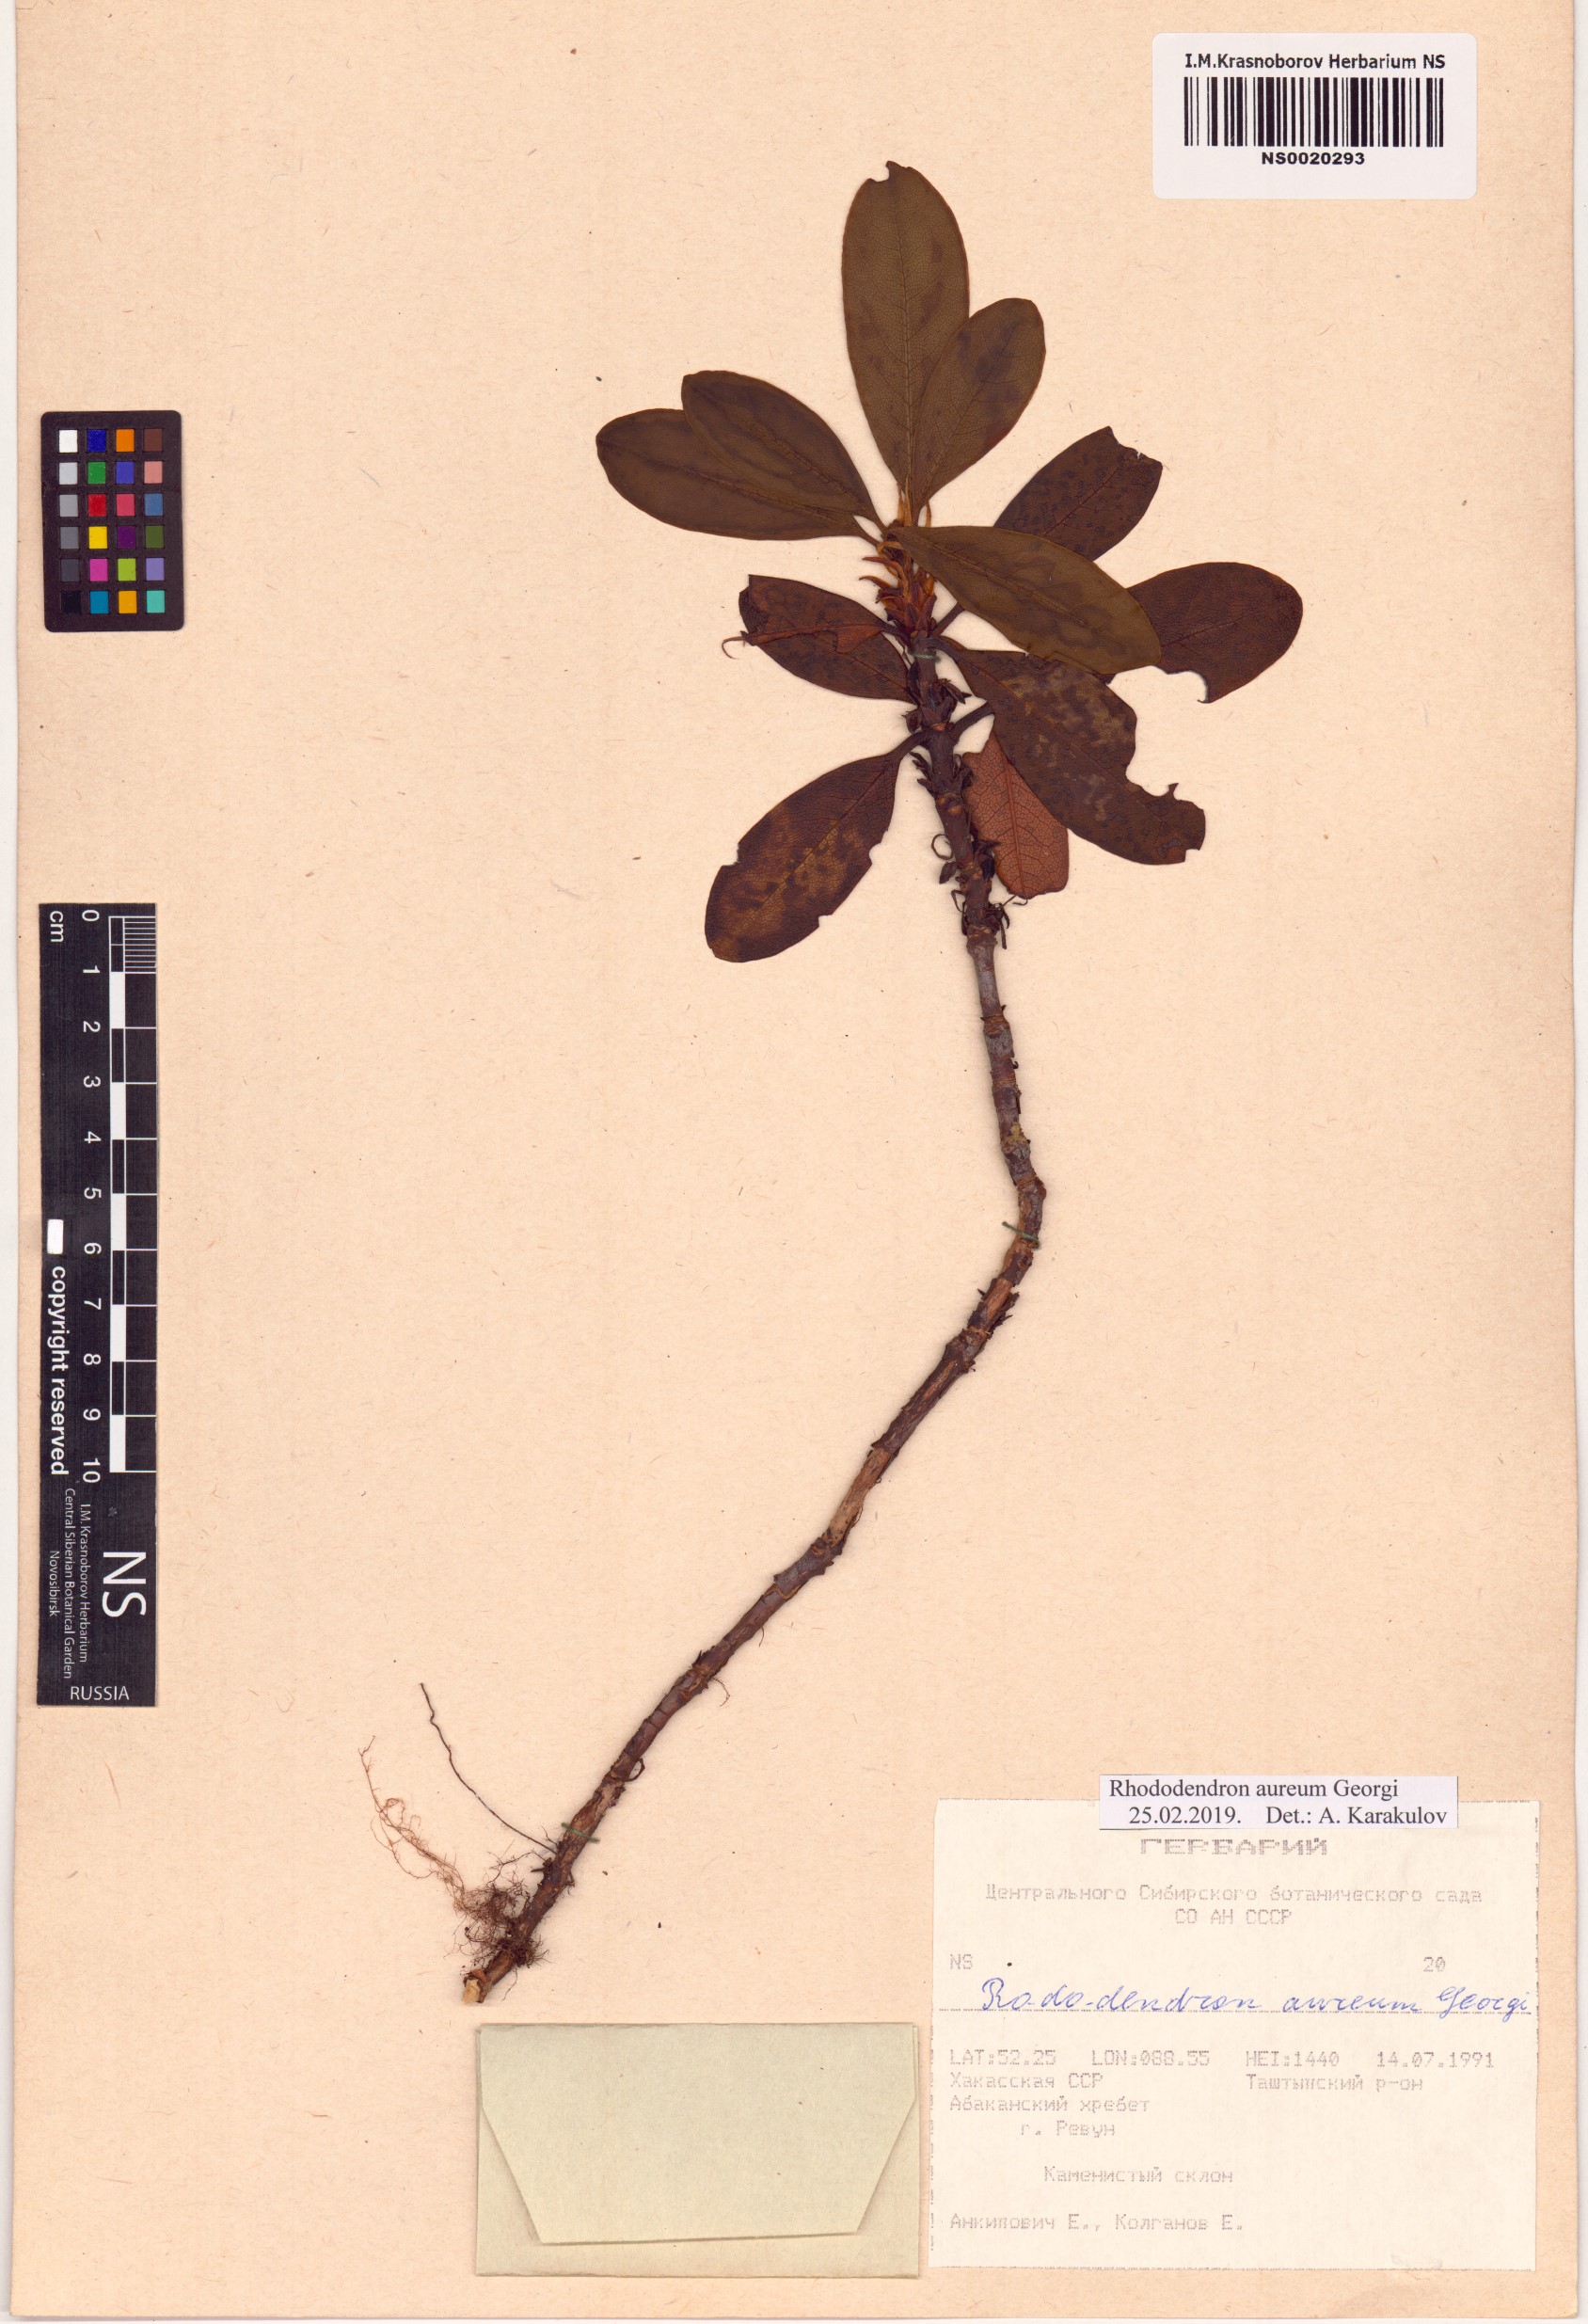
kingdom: Plantae
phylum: Tracheophyta
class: Magnoliopsida
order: Ericales
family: Ericaceae
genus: Rhododendron
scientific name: Rhododendron aureum
